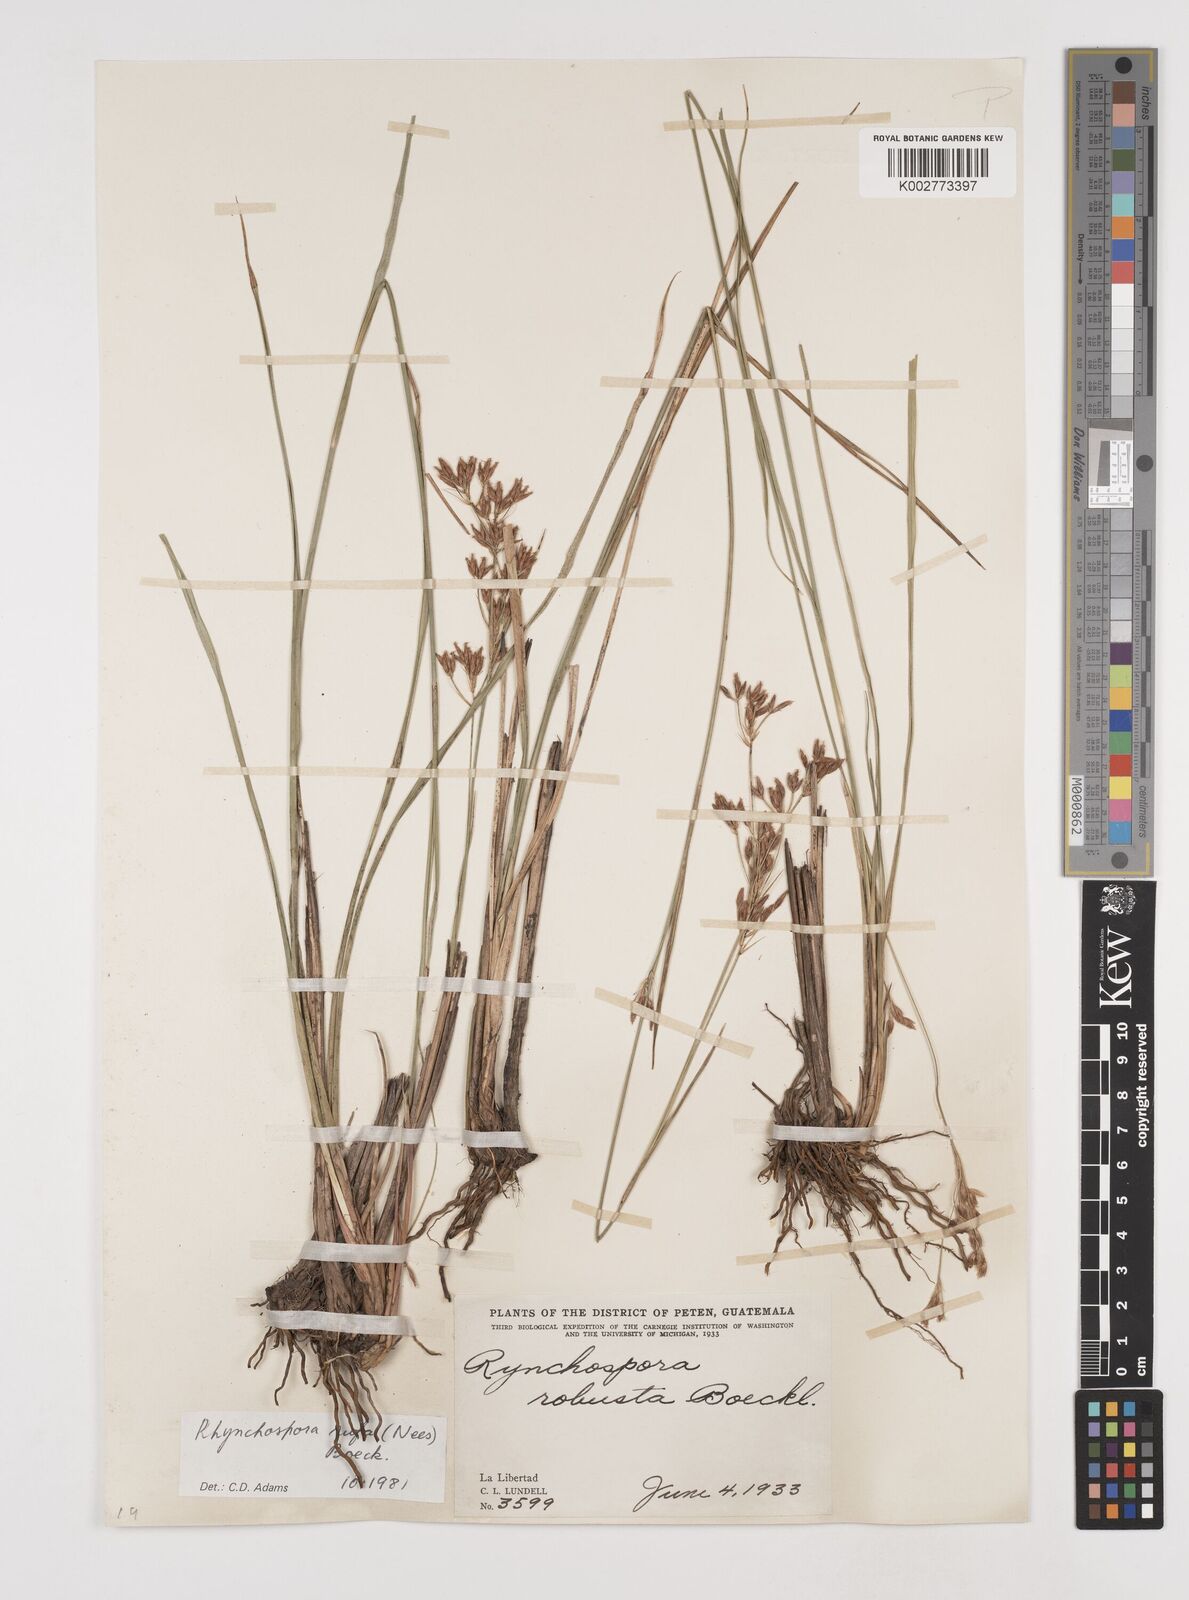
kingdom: Plantae
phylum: Tracheophyta
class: Liliopsida
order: Poales
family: Cyperaceae
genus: Rhynchospora
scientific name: Rhynchospora velutina
